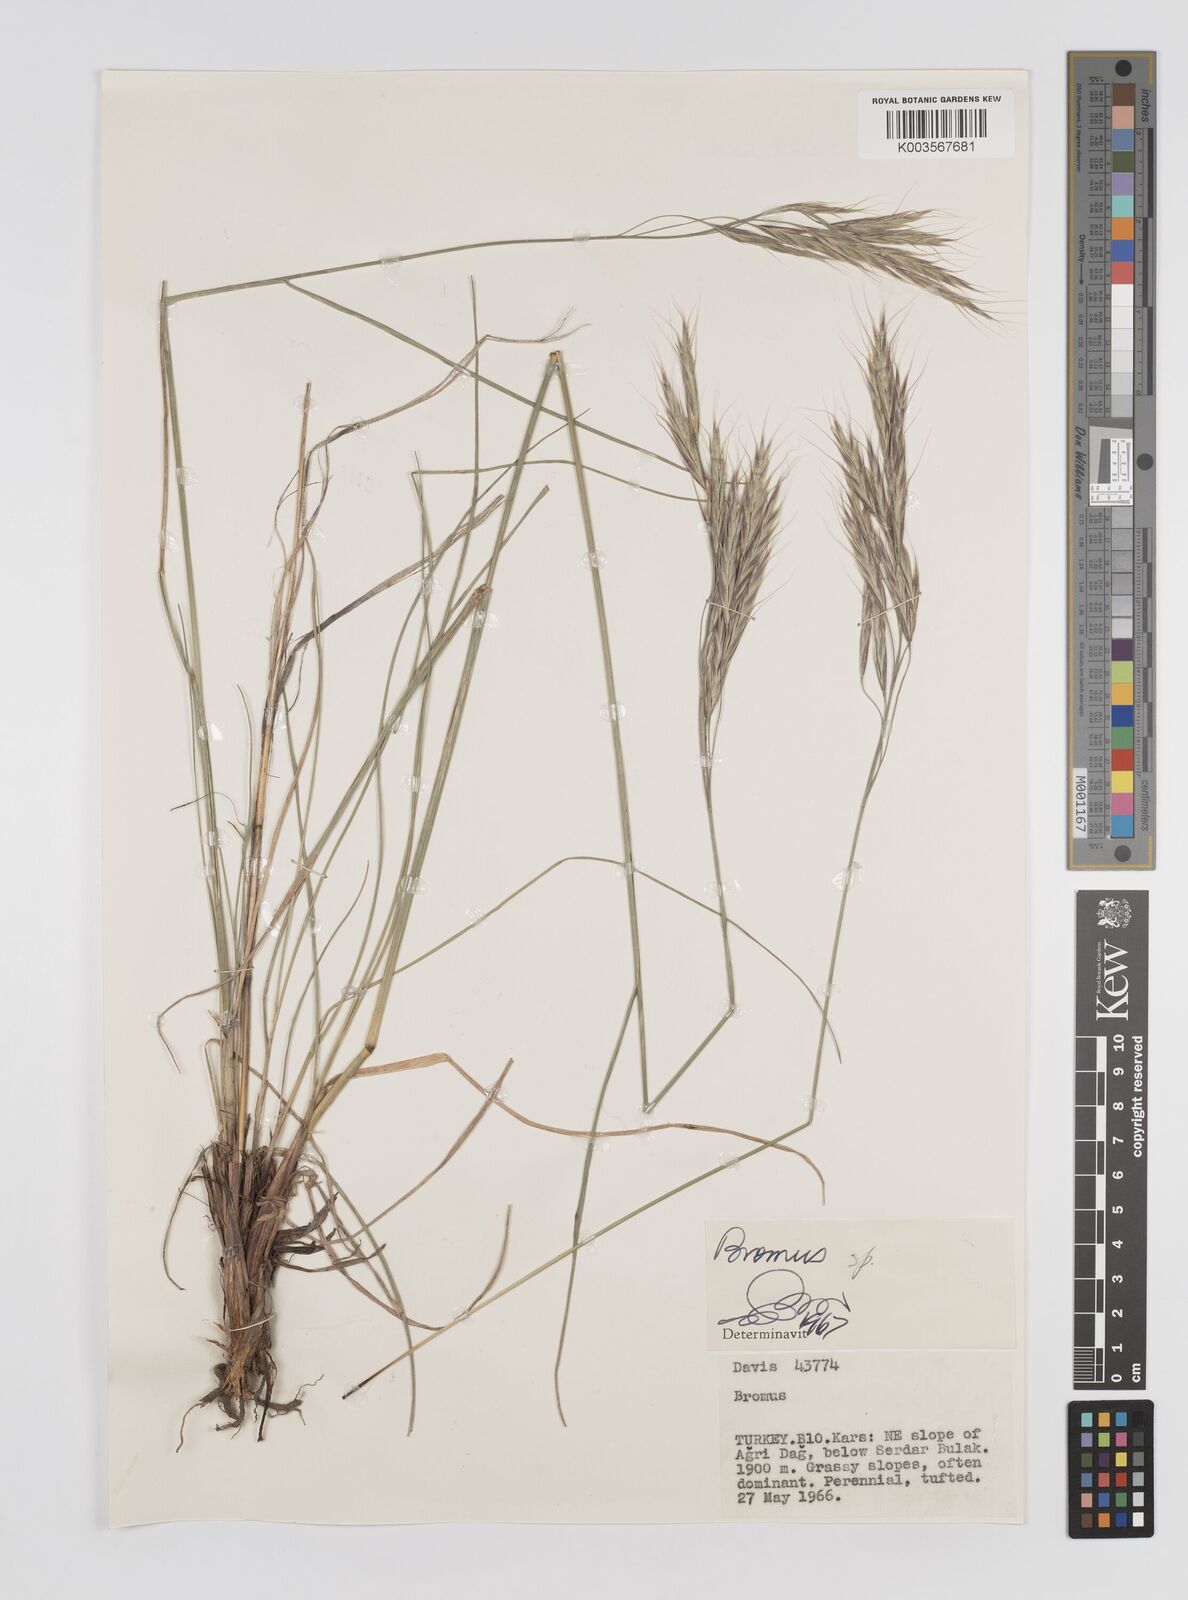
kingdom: Plantae
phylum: Tracheophyta
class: Liliopsida
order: Poales
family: Poaceae
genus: Bromus
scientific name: Bromus
